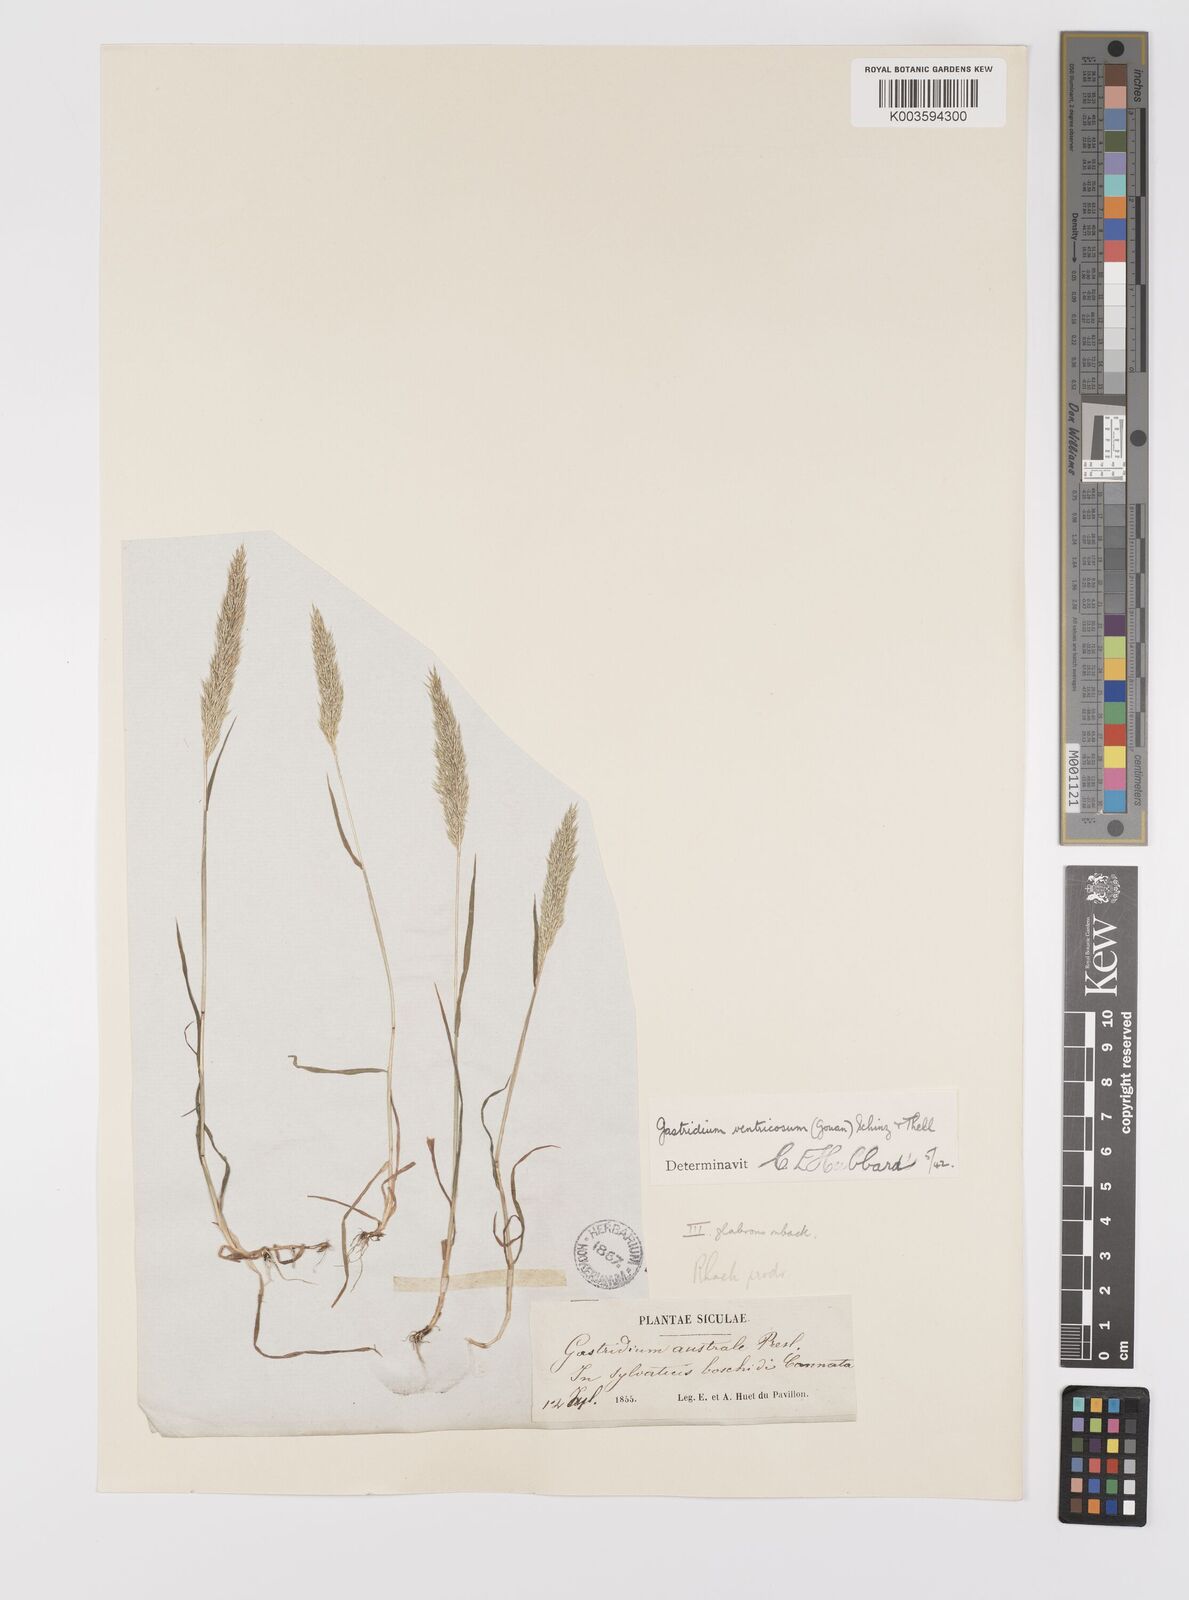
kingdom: Plantae
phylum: Tracheophyta
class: Liliopsida
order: Poales
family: Poaceae
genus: Gastridium
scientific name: Gastridium ventricosum
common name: Nit-grass
